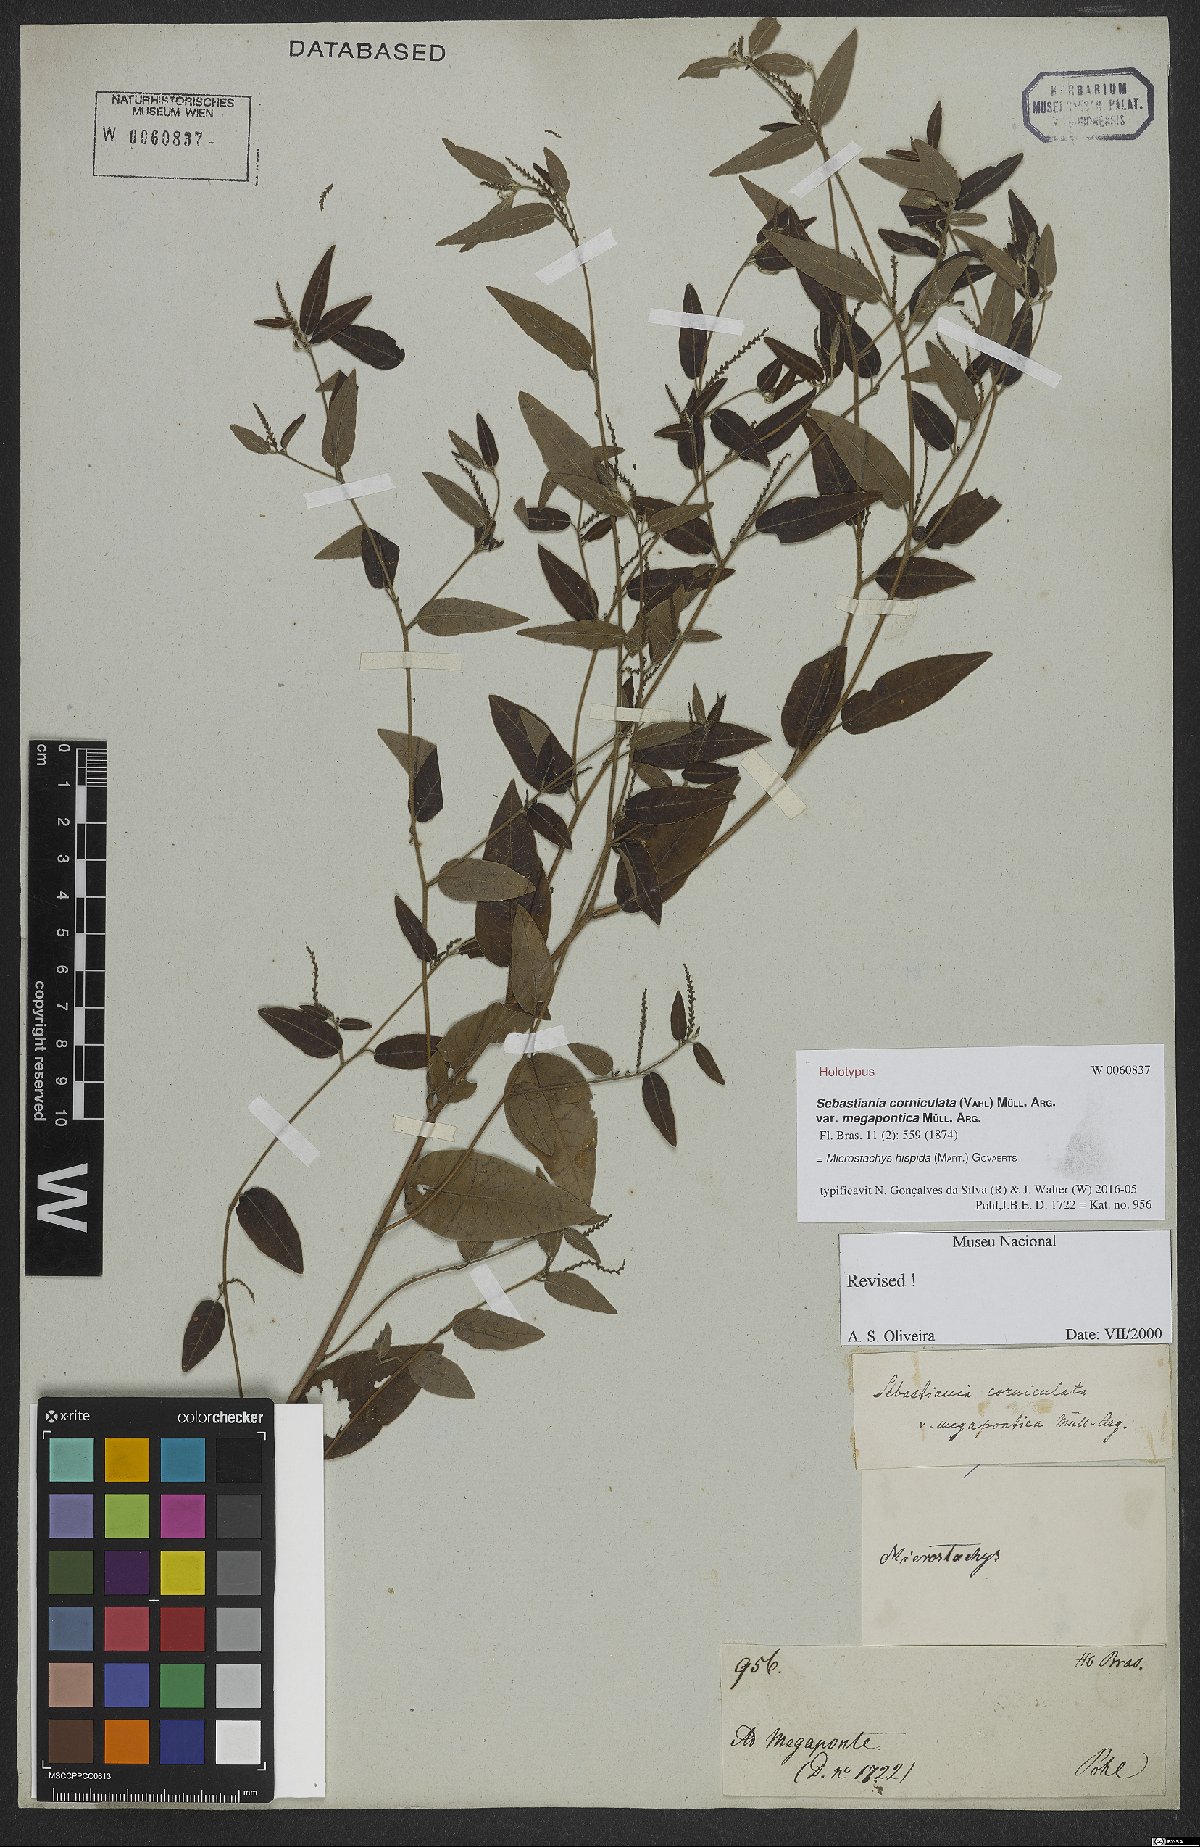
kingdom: Plantae
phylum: Tracheophyta
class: Magnoliopsida
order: Malpighiales
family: Euphorbiaceae
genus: Microstachys
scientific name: Microstachys hispida
